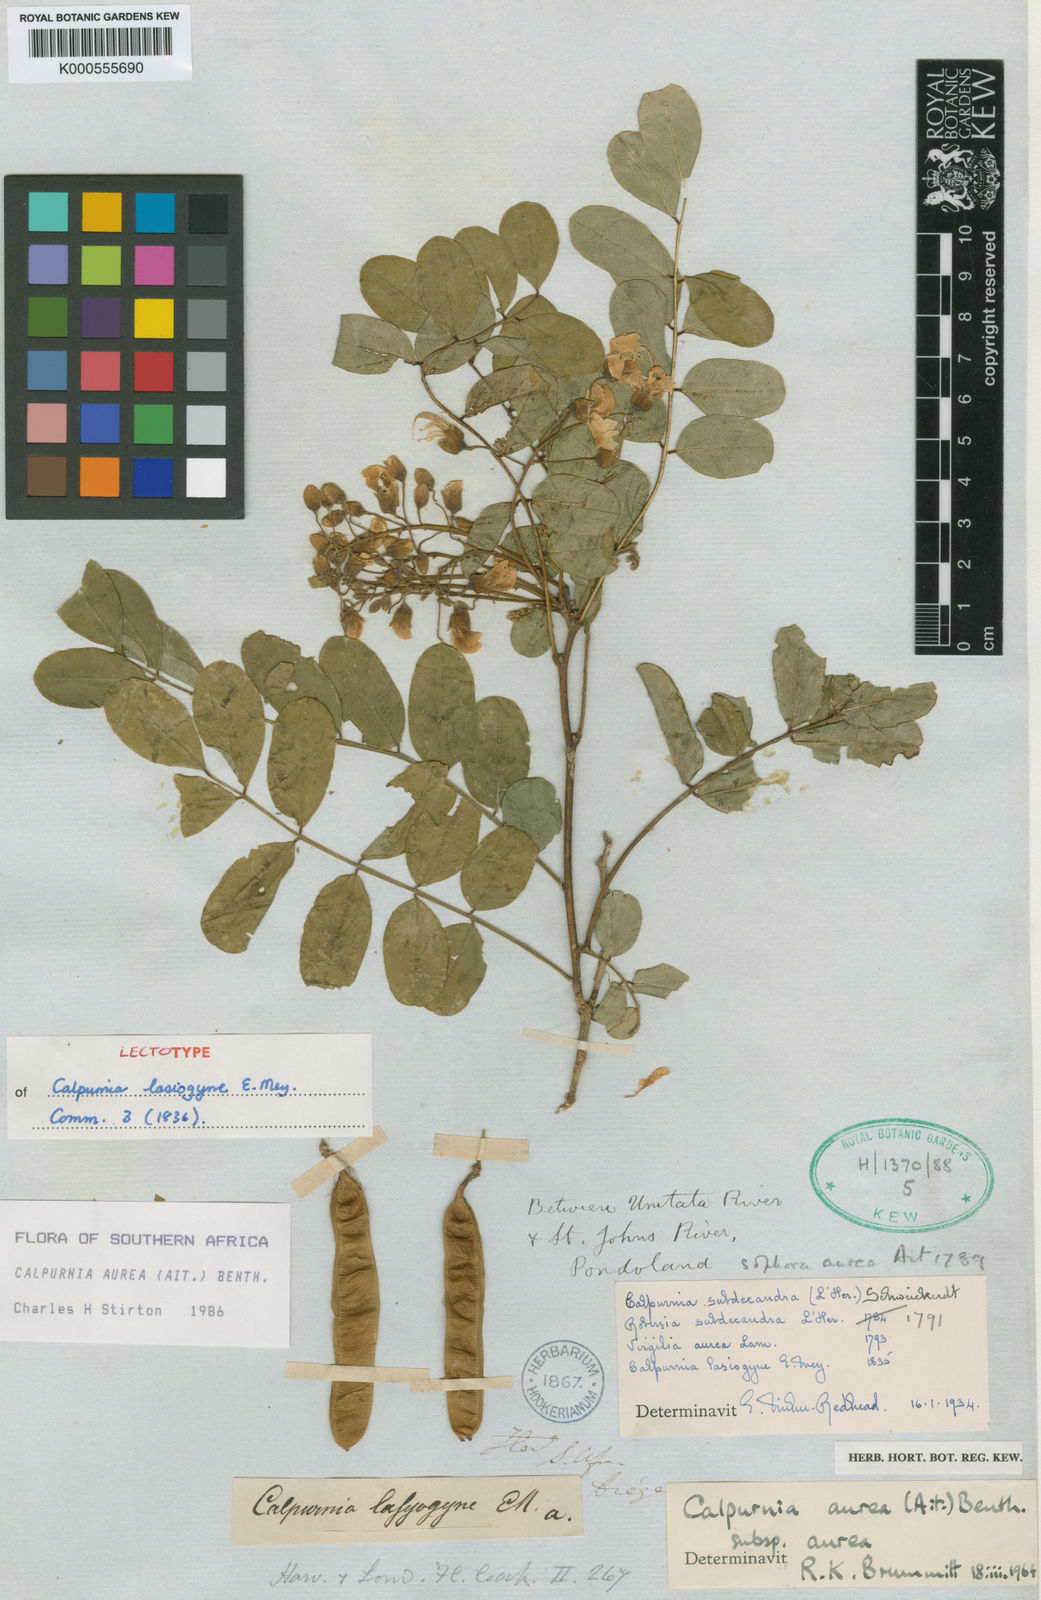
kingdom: Plantae
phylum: Tracheophyta
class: Magnoliopsida
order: Fabales
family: Fabaceae
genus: Calpurnia
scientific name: Calpurnia aurea
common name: Wild laburnum
